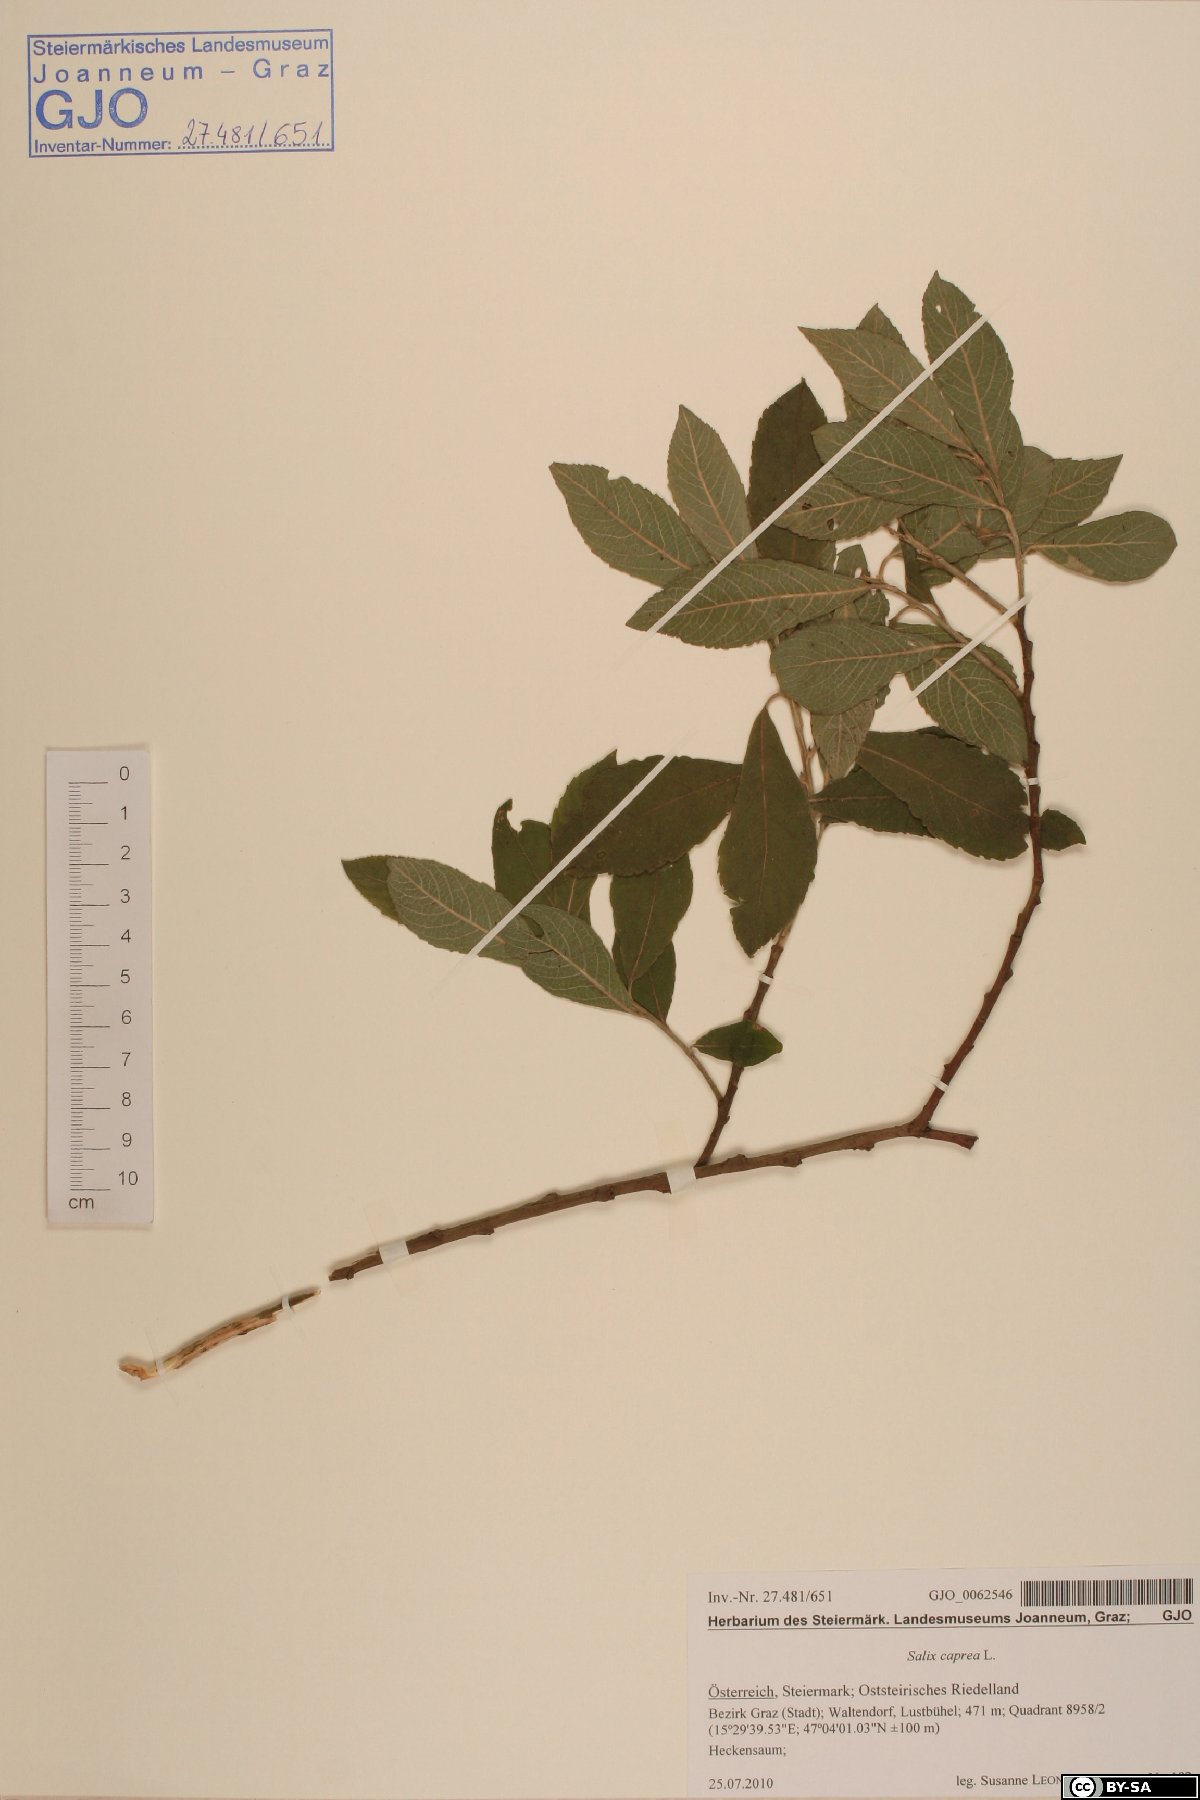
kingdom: Plantae
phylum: Tracheophyta
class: Magnoliopsida
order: Malpighiales
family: Salicaceae
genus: Salix
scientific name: Salix caprea
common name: Goat willow
